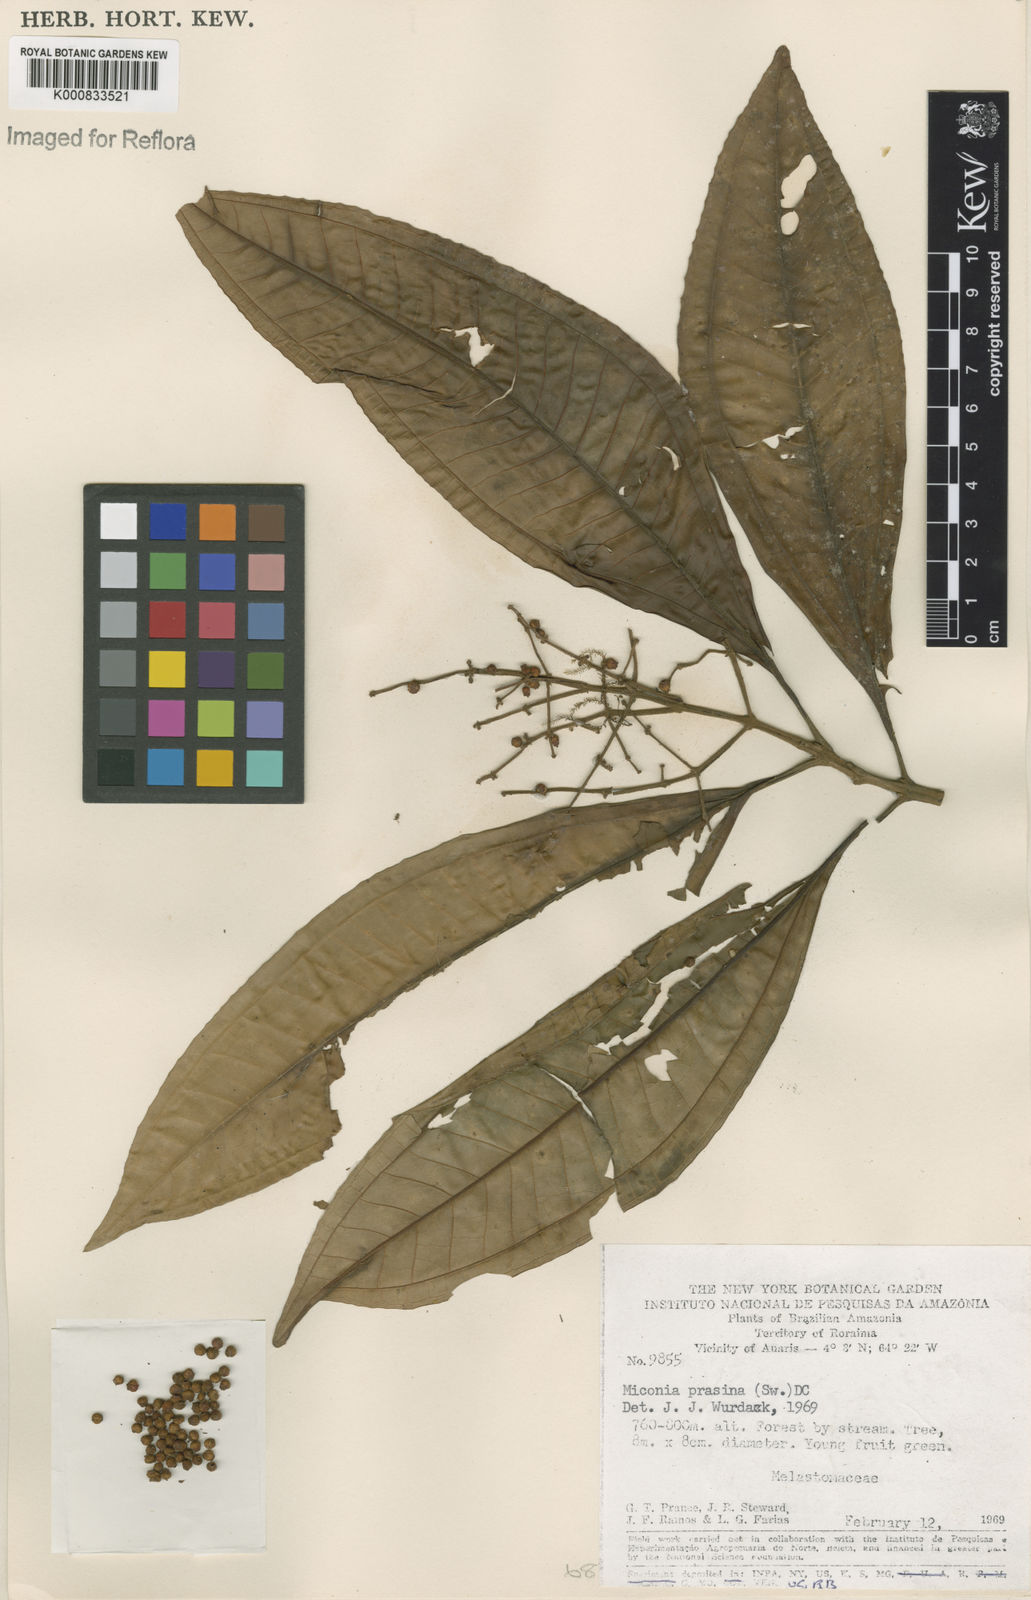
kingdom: Plantae
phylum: Tracheophyta
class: Magnoliopsida
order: Myrtales
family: Melastomataceae
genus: Miconia
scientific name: Miconia prasina
